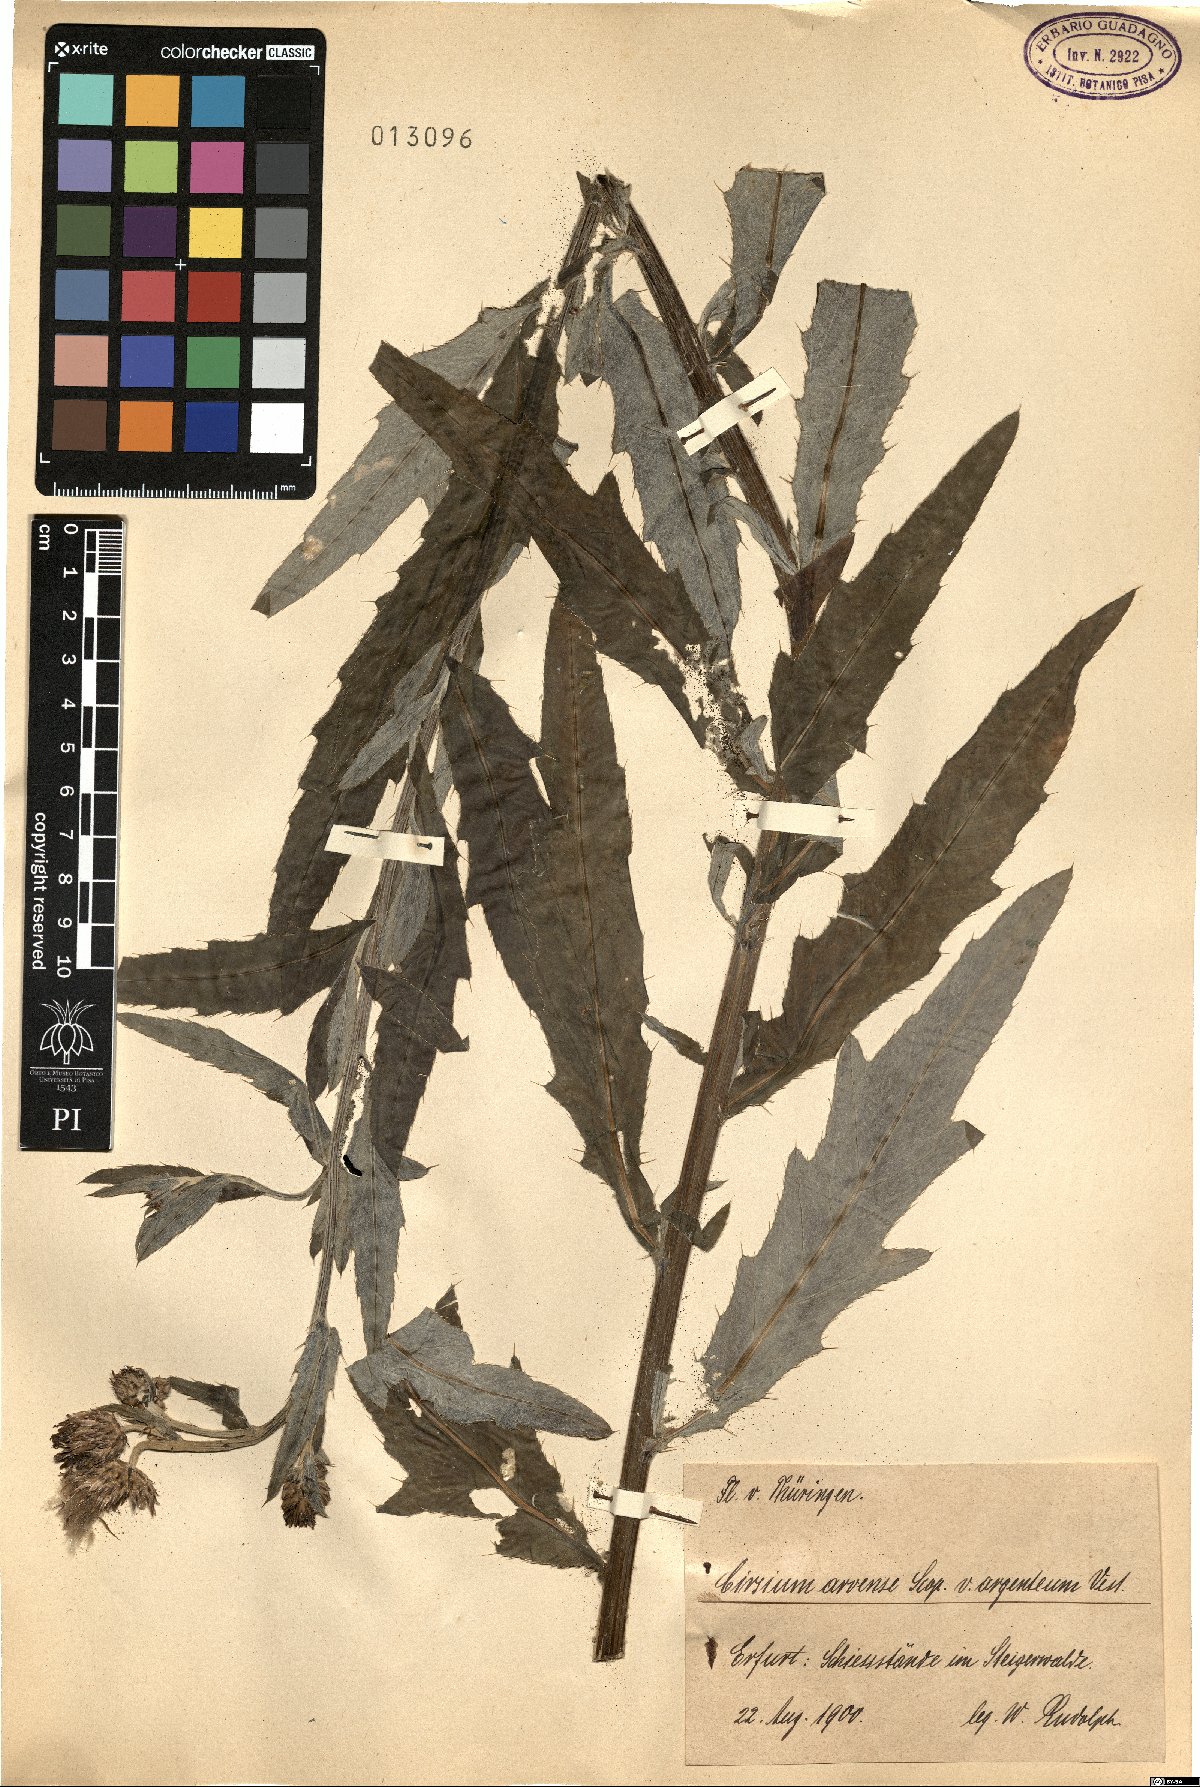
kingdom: Plantae
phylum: Tracheophyta
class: Magnoliopsida
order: Asterales
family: Asteraceae
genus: Cirsium
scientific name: Cirsium arvense
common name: Creeping thistle
